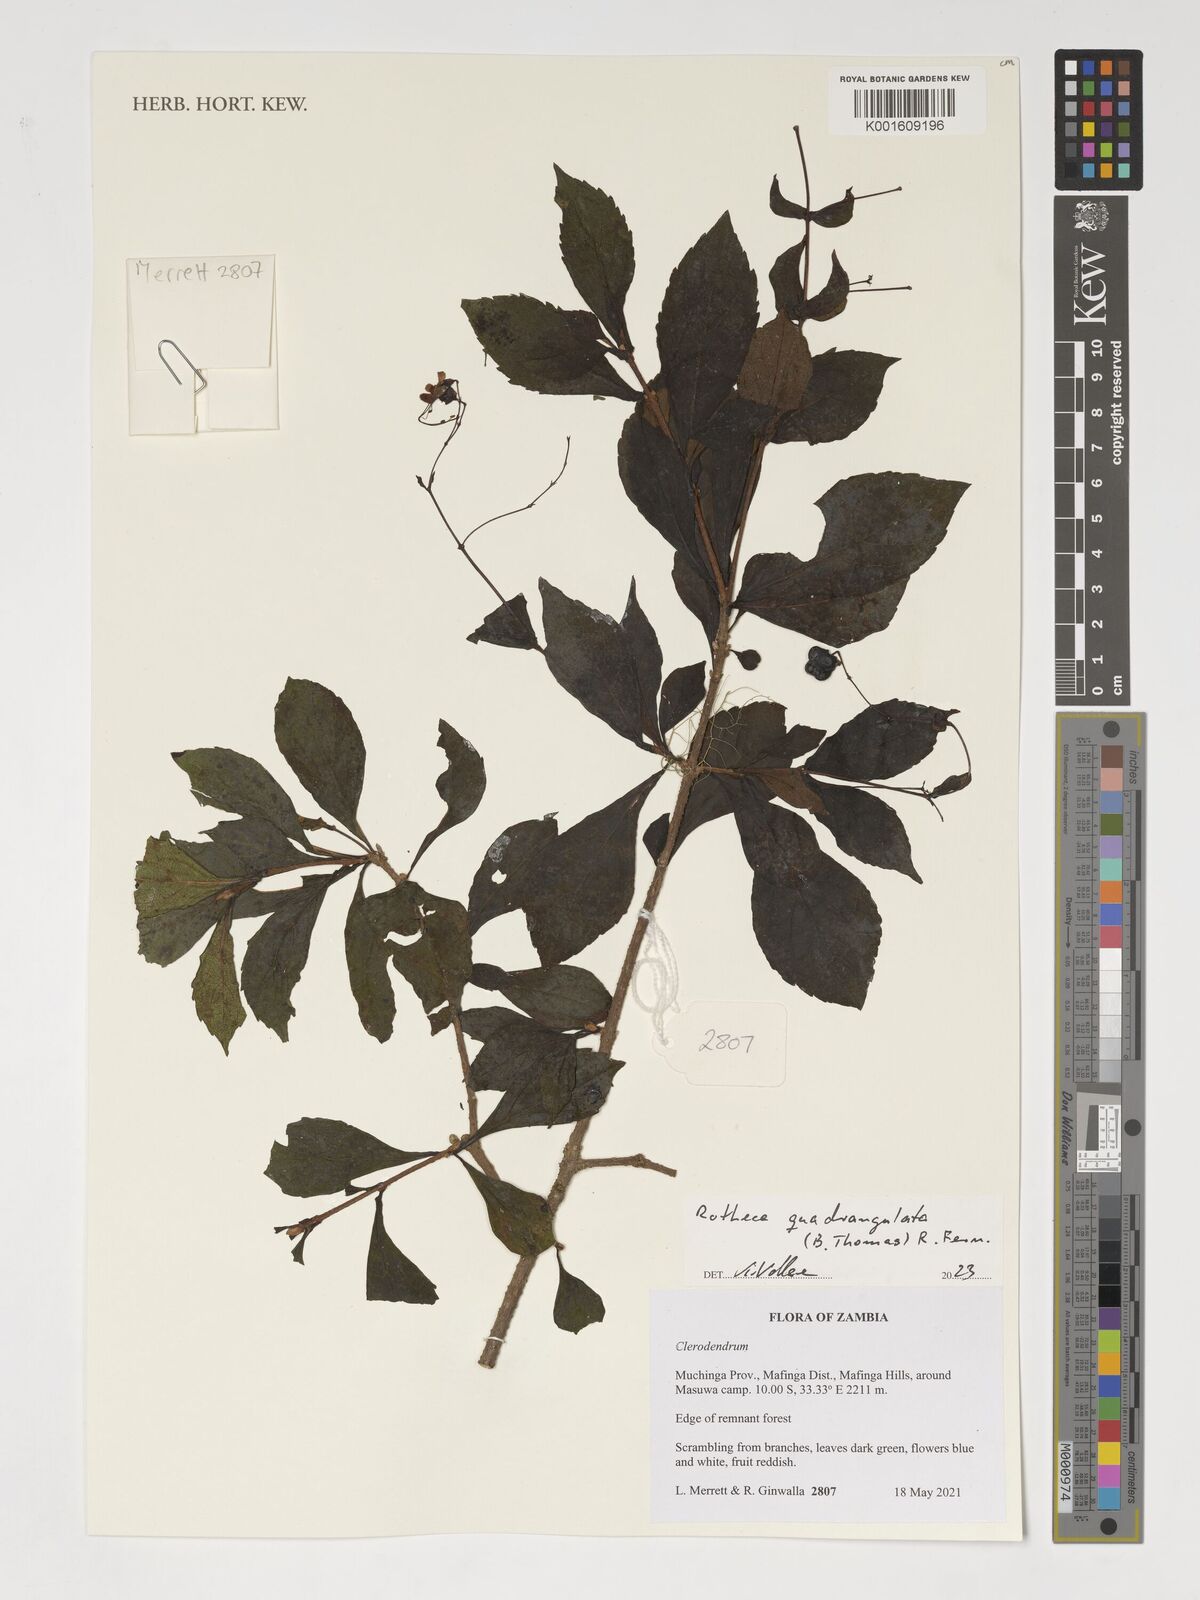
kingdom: Plantae
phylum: Tracheophyta
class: Magnoliopsida
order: Lamiales
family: Lamiaceae
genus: Rotheca
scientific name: Rotheca quadrangulata
